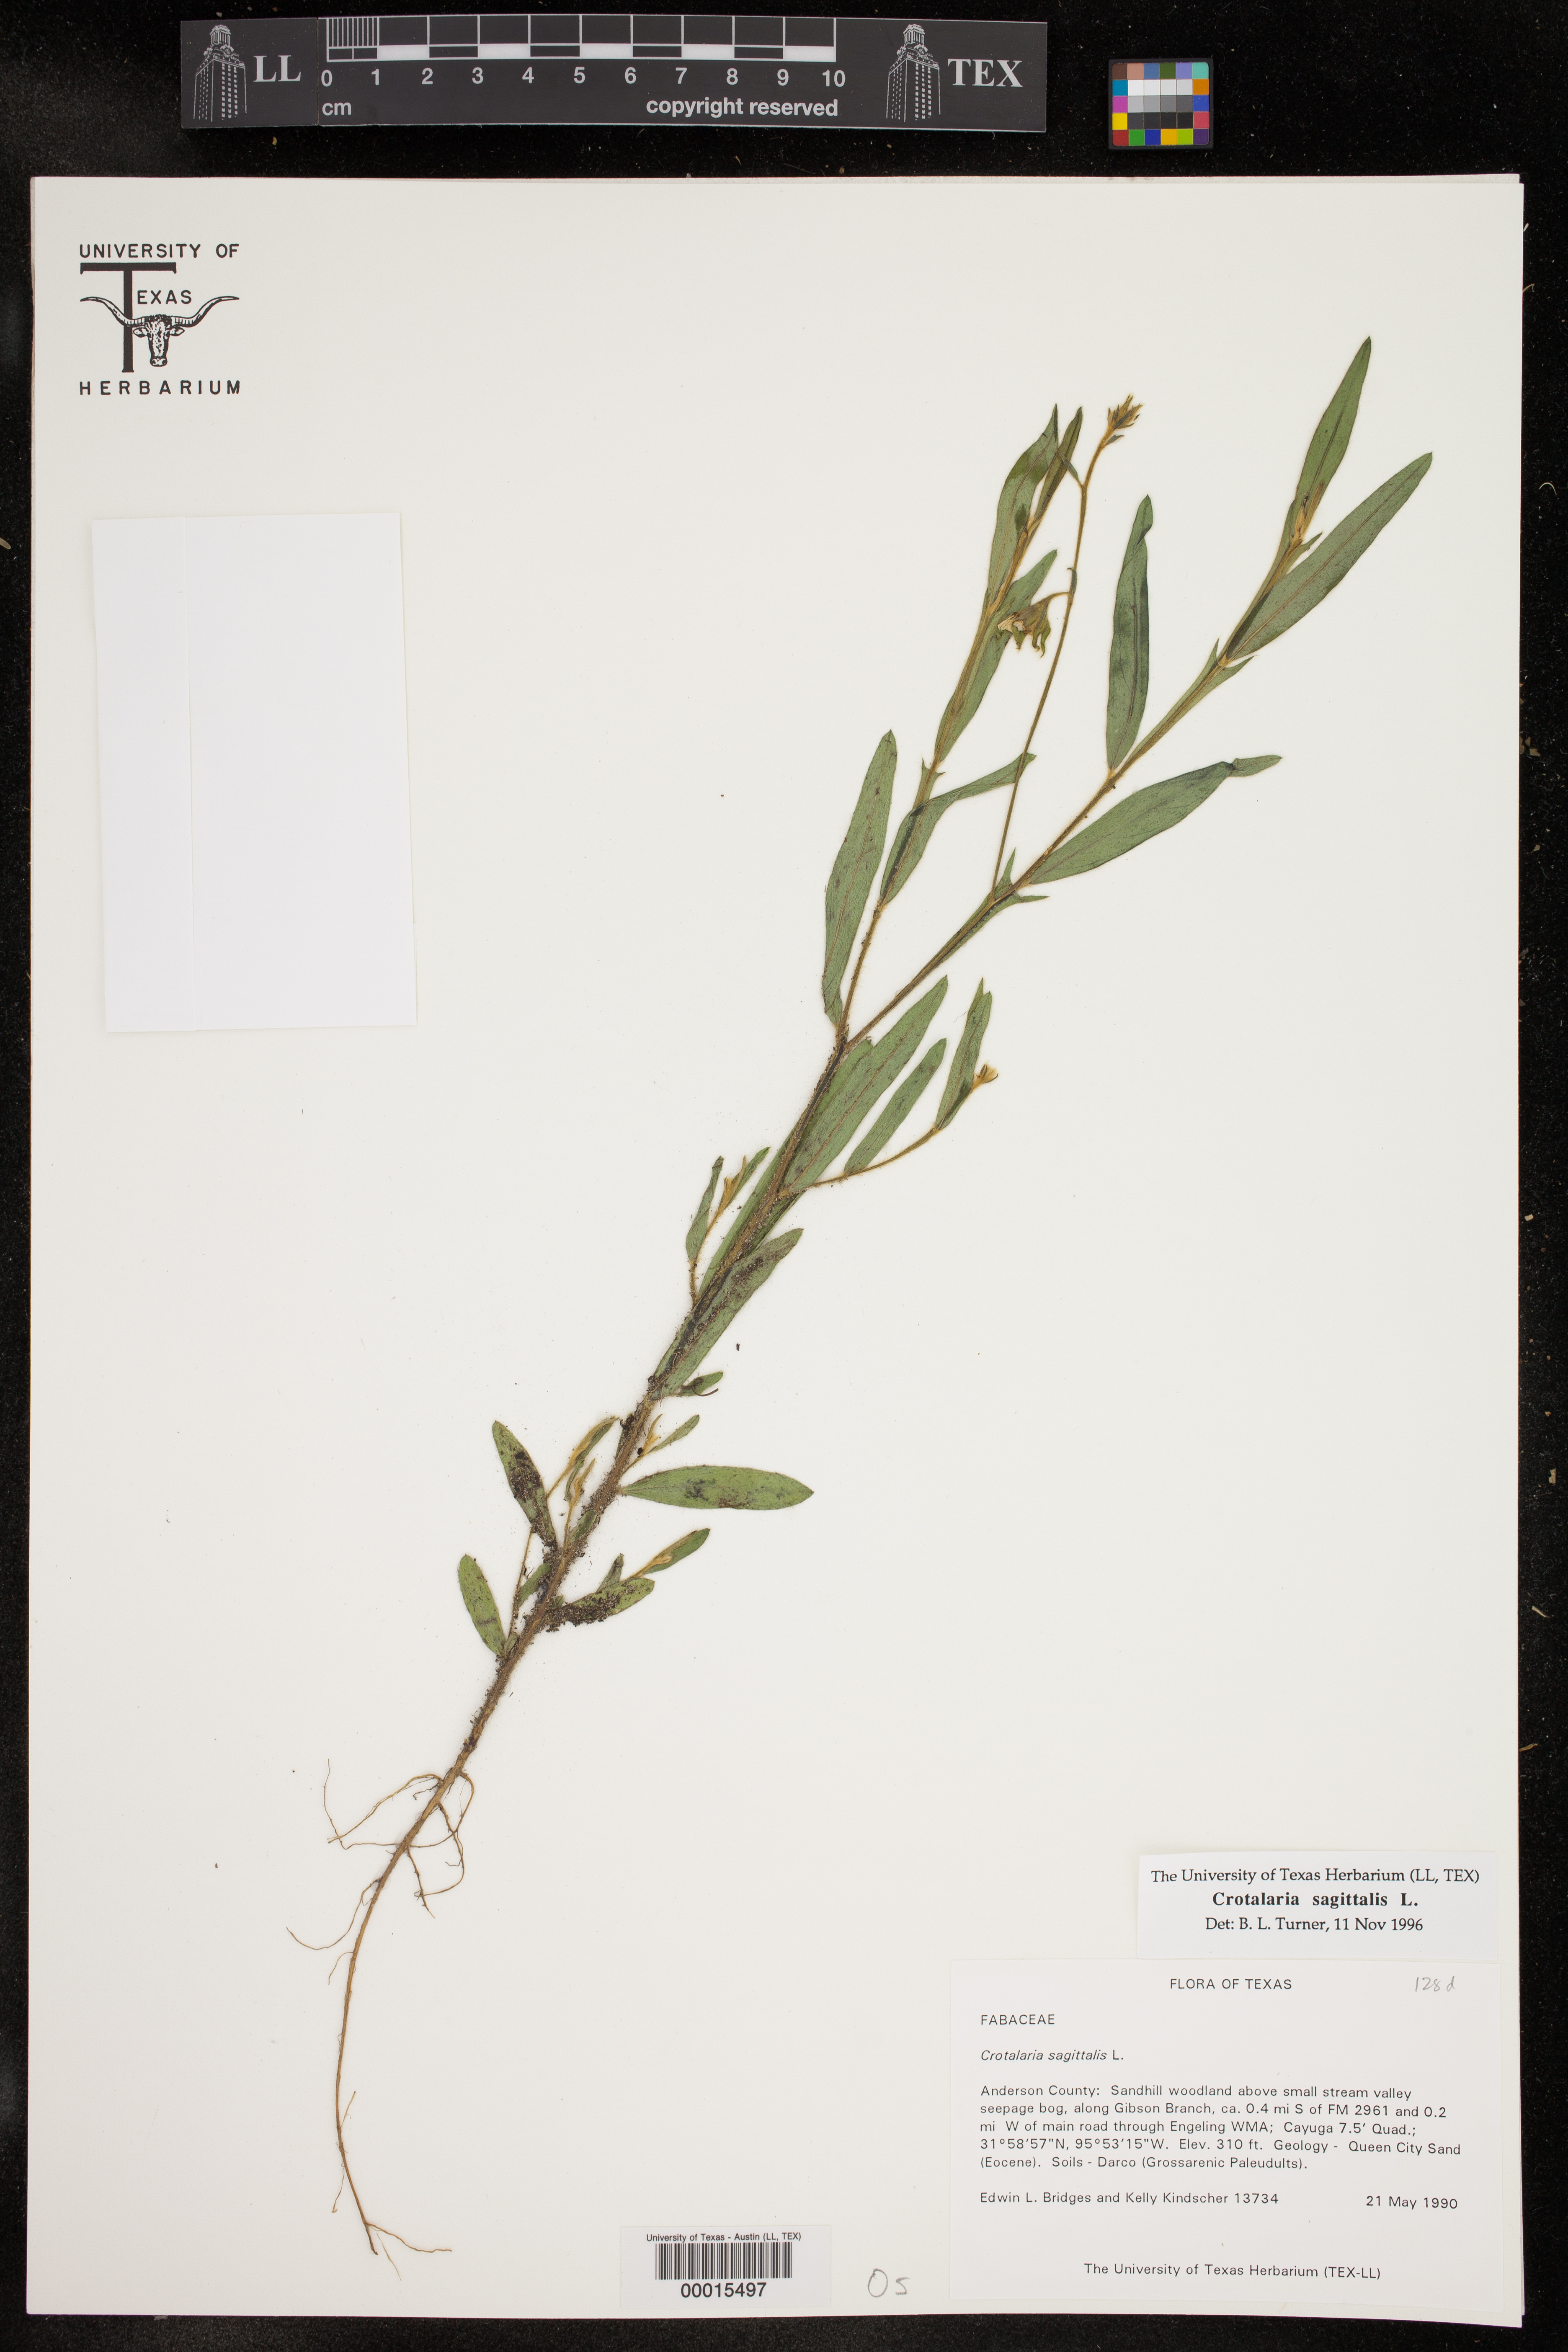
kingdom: Plantae
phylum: Tracheophyta
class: Magnoliopsida
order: Fabales
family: Fabaceae
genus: Crotalaria
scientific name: Crotalaria sagittalis
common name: Arrowhead rattlebox
